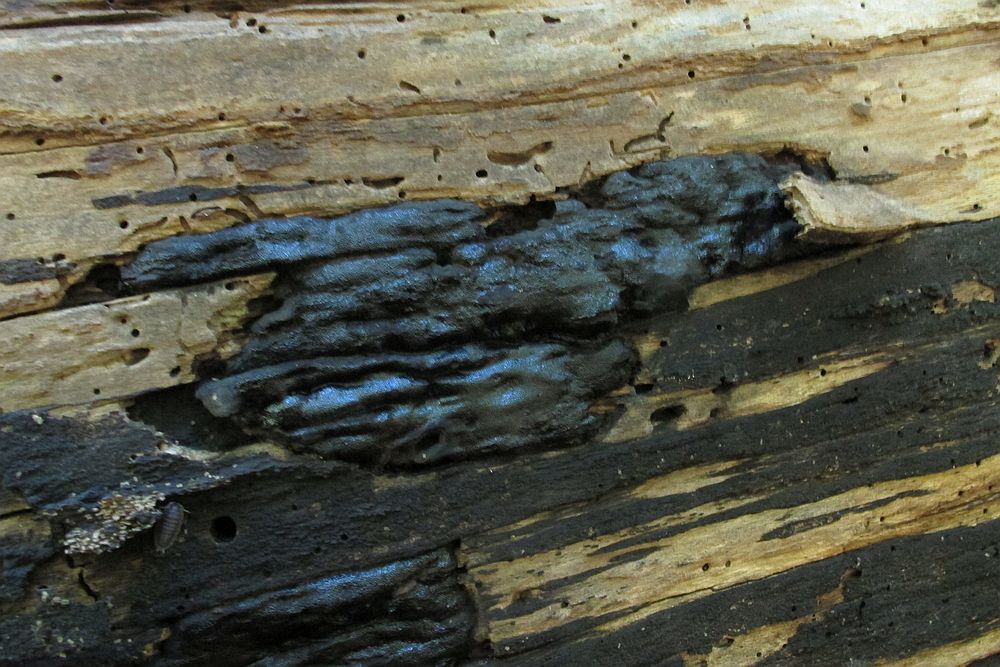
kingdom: Fungi
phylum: Ascomycota
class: Sordariomycetes
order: Boliniales
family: Boliniaceae
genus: Camarops
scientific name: Camarops polysperma
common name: elle-kulsnegl
